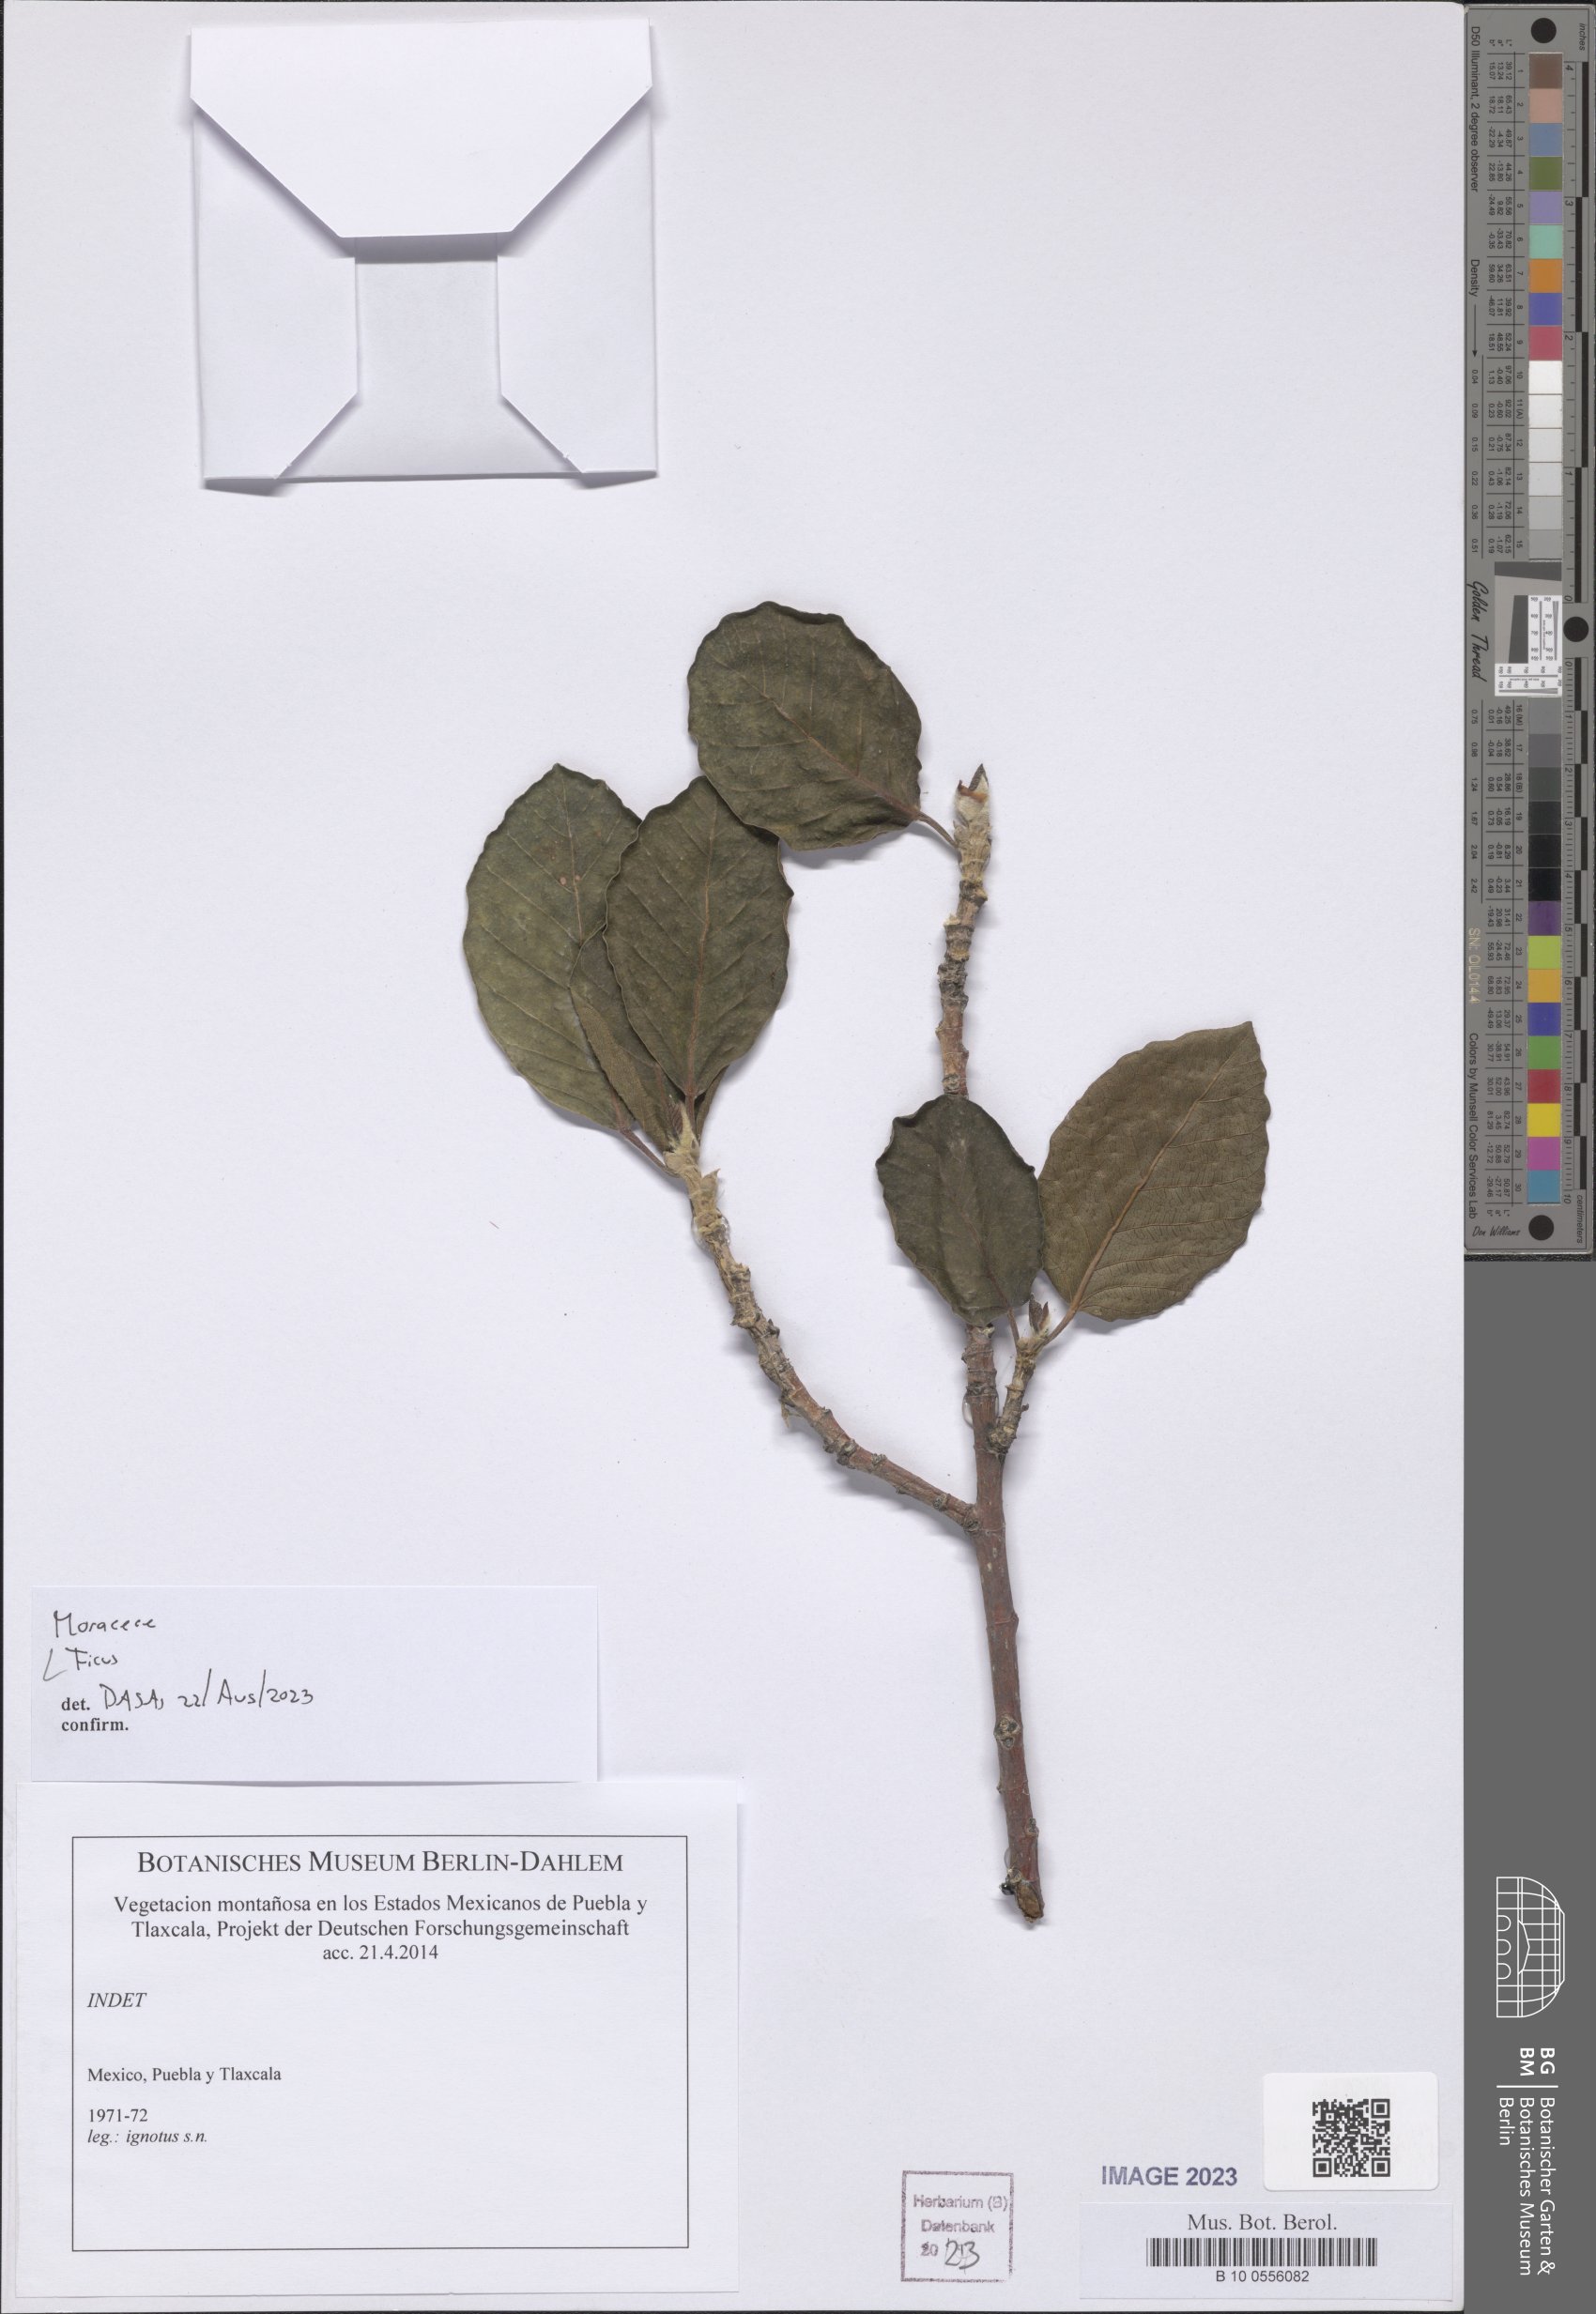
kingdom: Plantae
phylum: Tracheophyta
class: Magnoliopsida
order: Rosales
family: Moraceae
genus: Ficus
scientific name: Ficus
